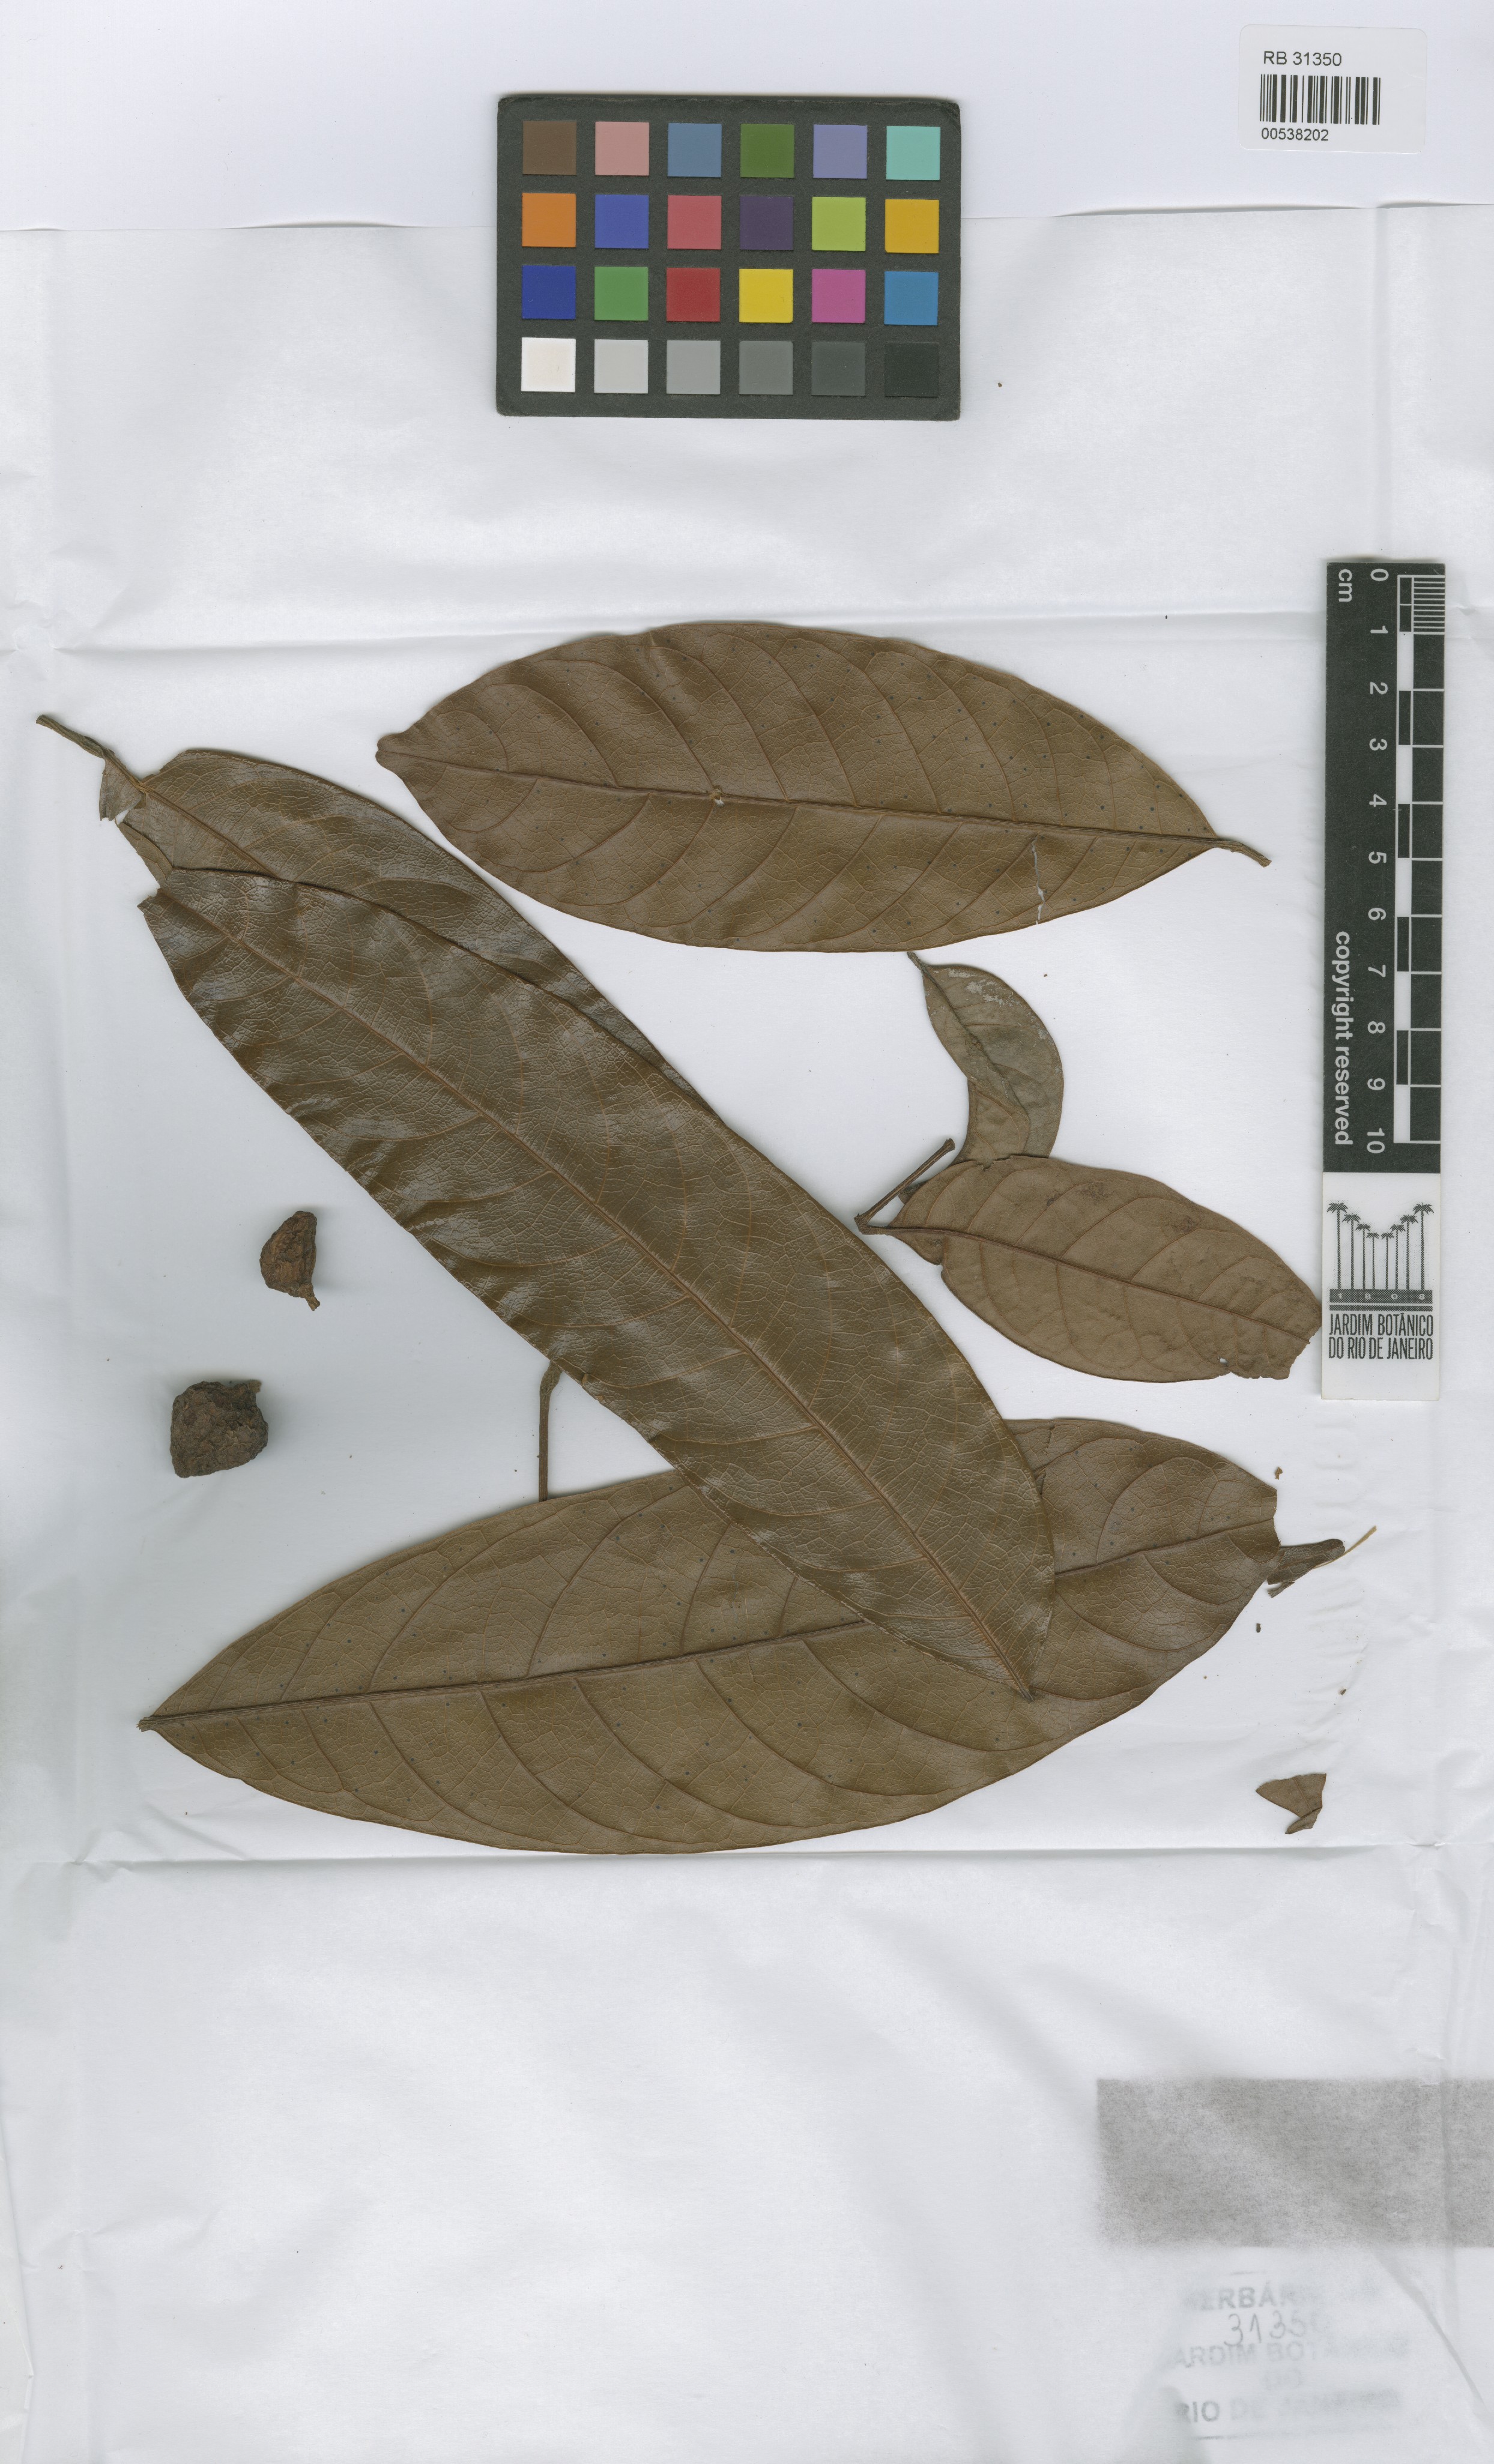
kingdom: Plantae
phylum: Tracheophyta
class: Magnoliopsida
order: Sapindales
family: Burseraceae
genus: Protium
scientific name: Protium apiculatum
